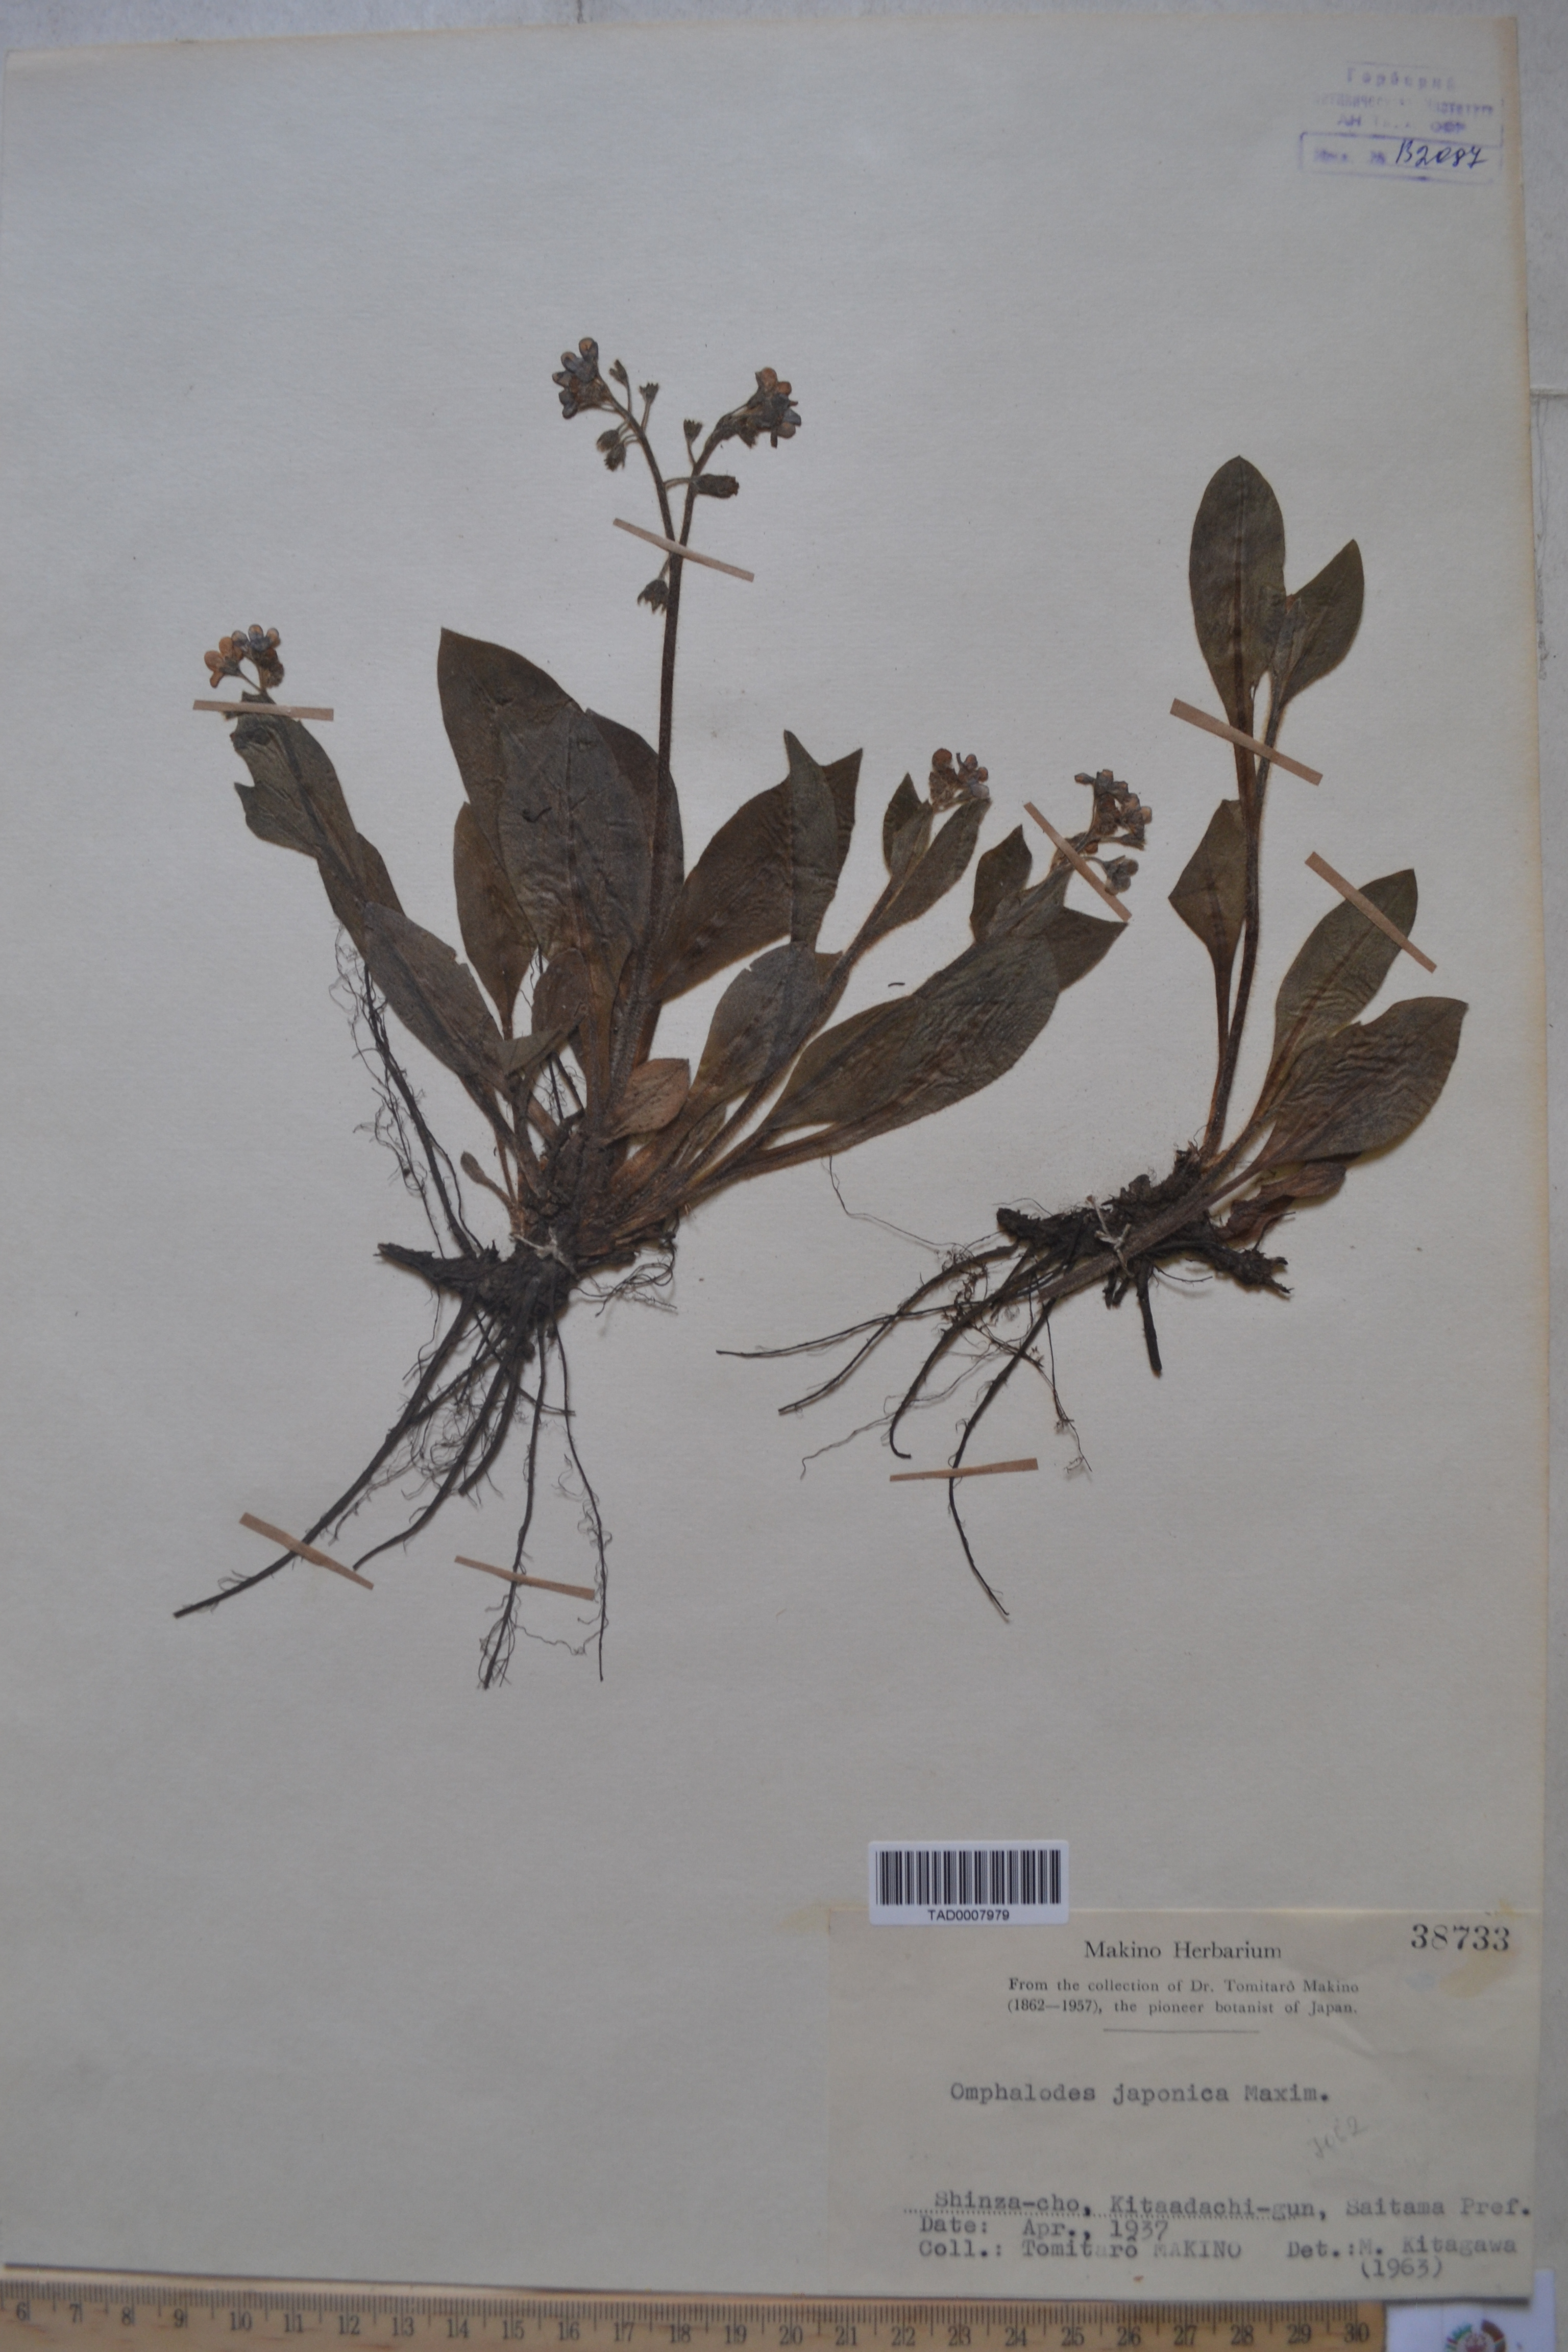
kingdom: Plantae
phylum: Tracheophyta
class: Magnoliopsida
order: Boraginales
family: Boraginaceae
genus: Nihon
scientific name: Nihon japonicum
